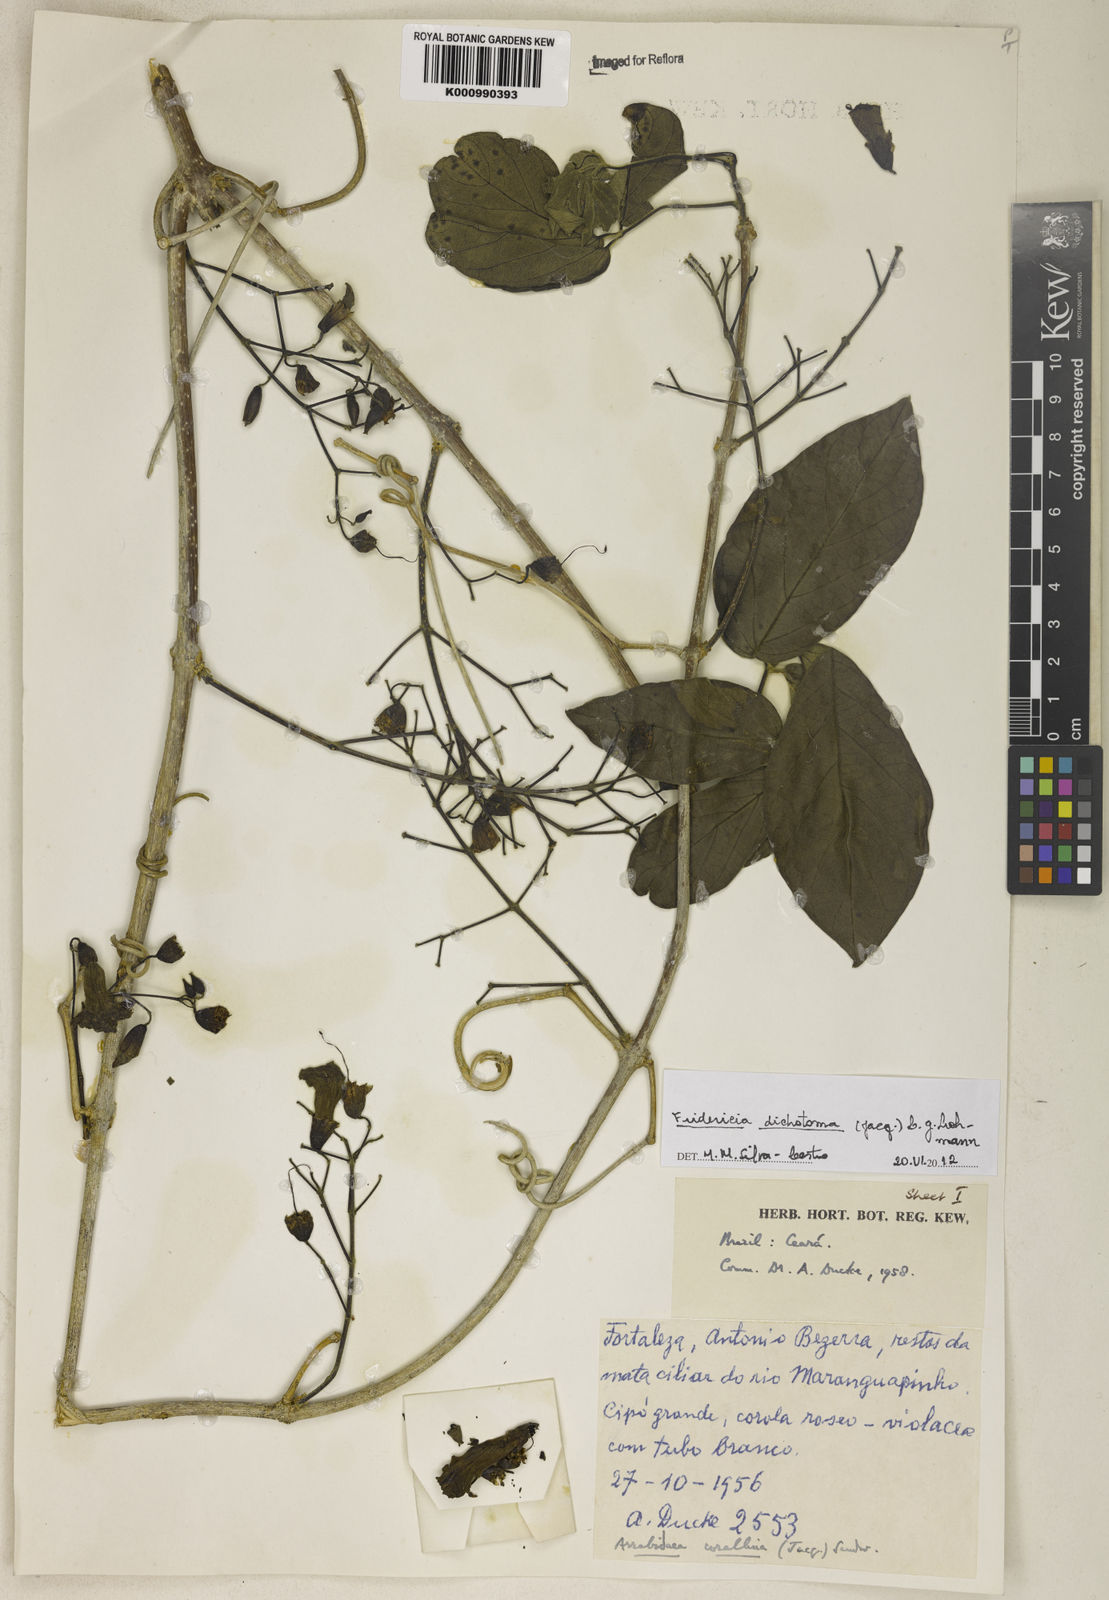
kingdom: Plantae
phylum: Tracheophyta
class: Magnoliopsida
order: Lamiales
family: Bignoniaceae
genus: Tanaecium
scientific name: Tanaecium dichotomum
